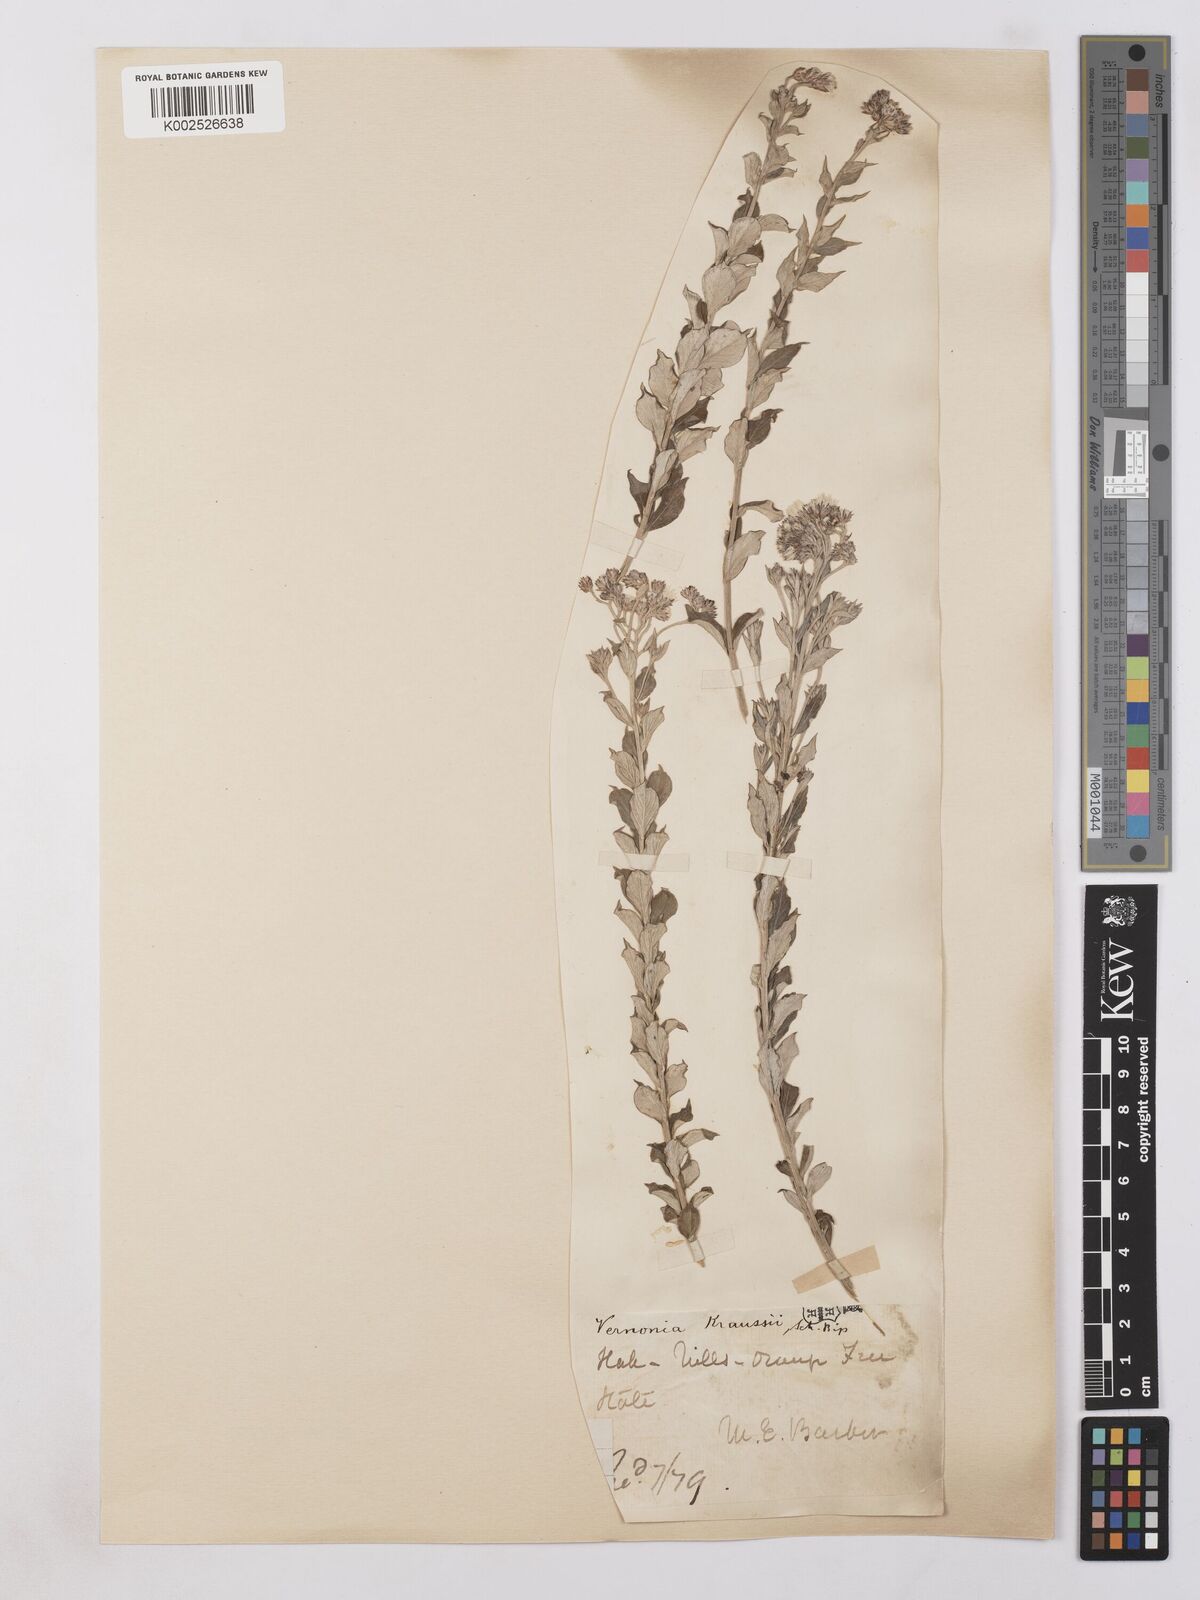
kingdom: Plantae
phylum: Tracheophyta
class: Magnoliopsida
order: Asterales
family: Asteraceae
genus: Hilliardiella
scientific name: Hilliardiella oligocephala
